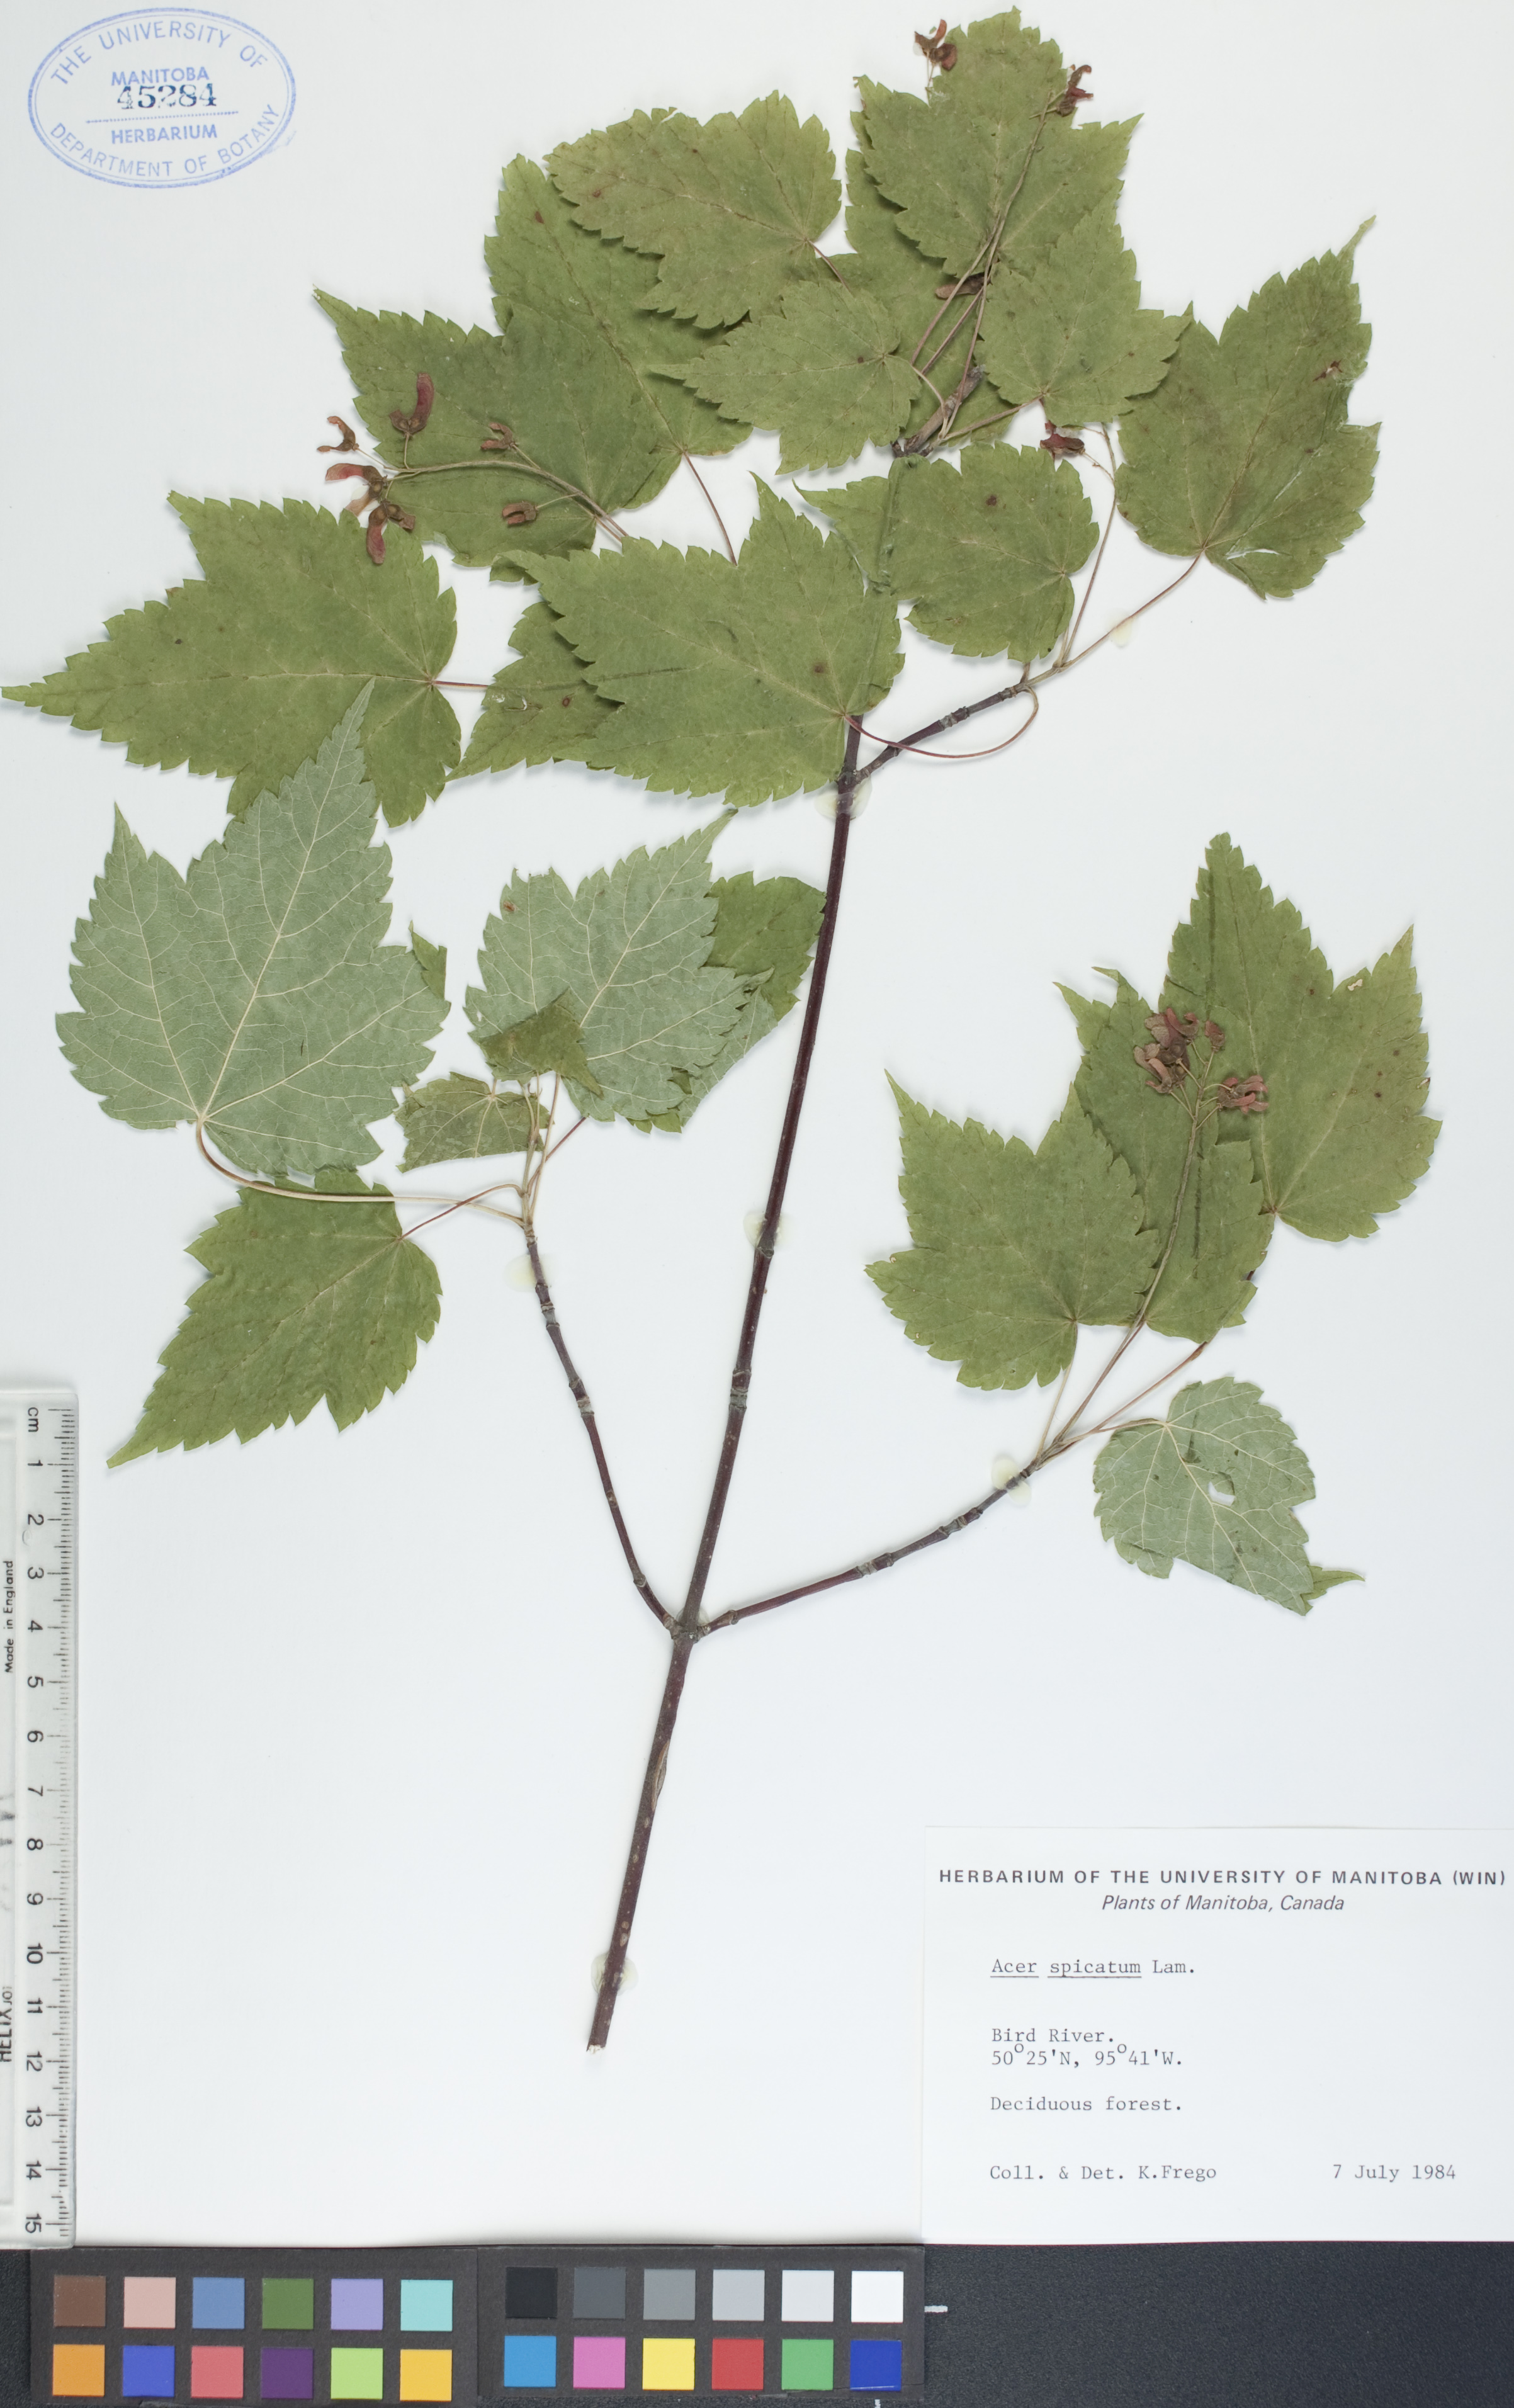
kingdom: Plantae
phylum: Tracheophyta
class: Magnoliopsida
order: Sapindales
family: Sapindaceae
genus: Acer
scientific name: Acer spicatum
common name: Mountain maple
